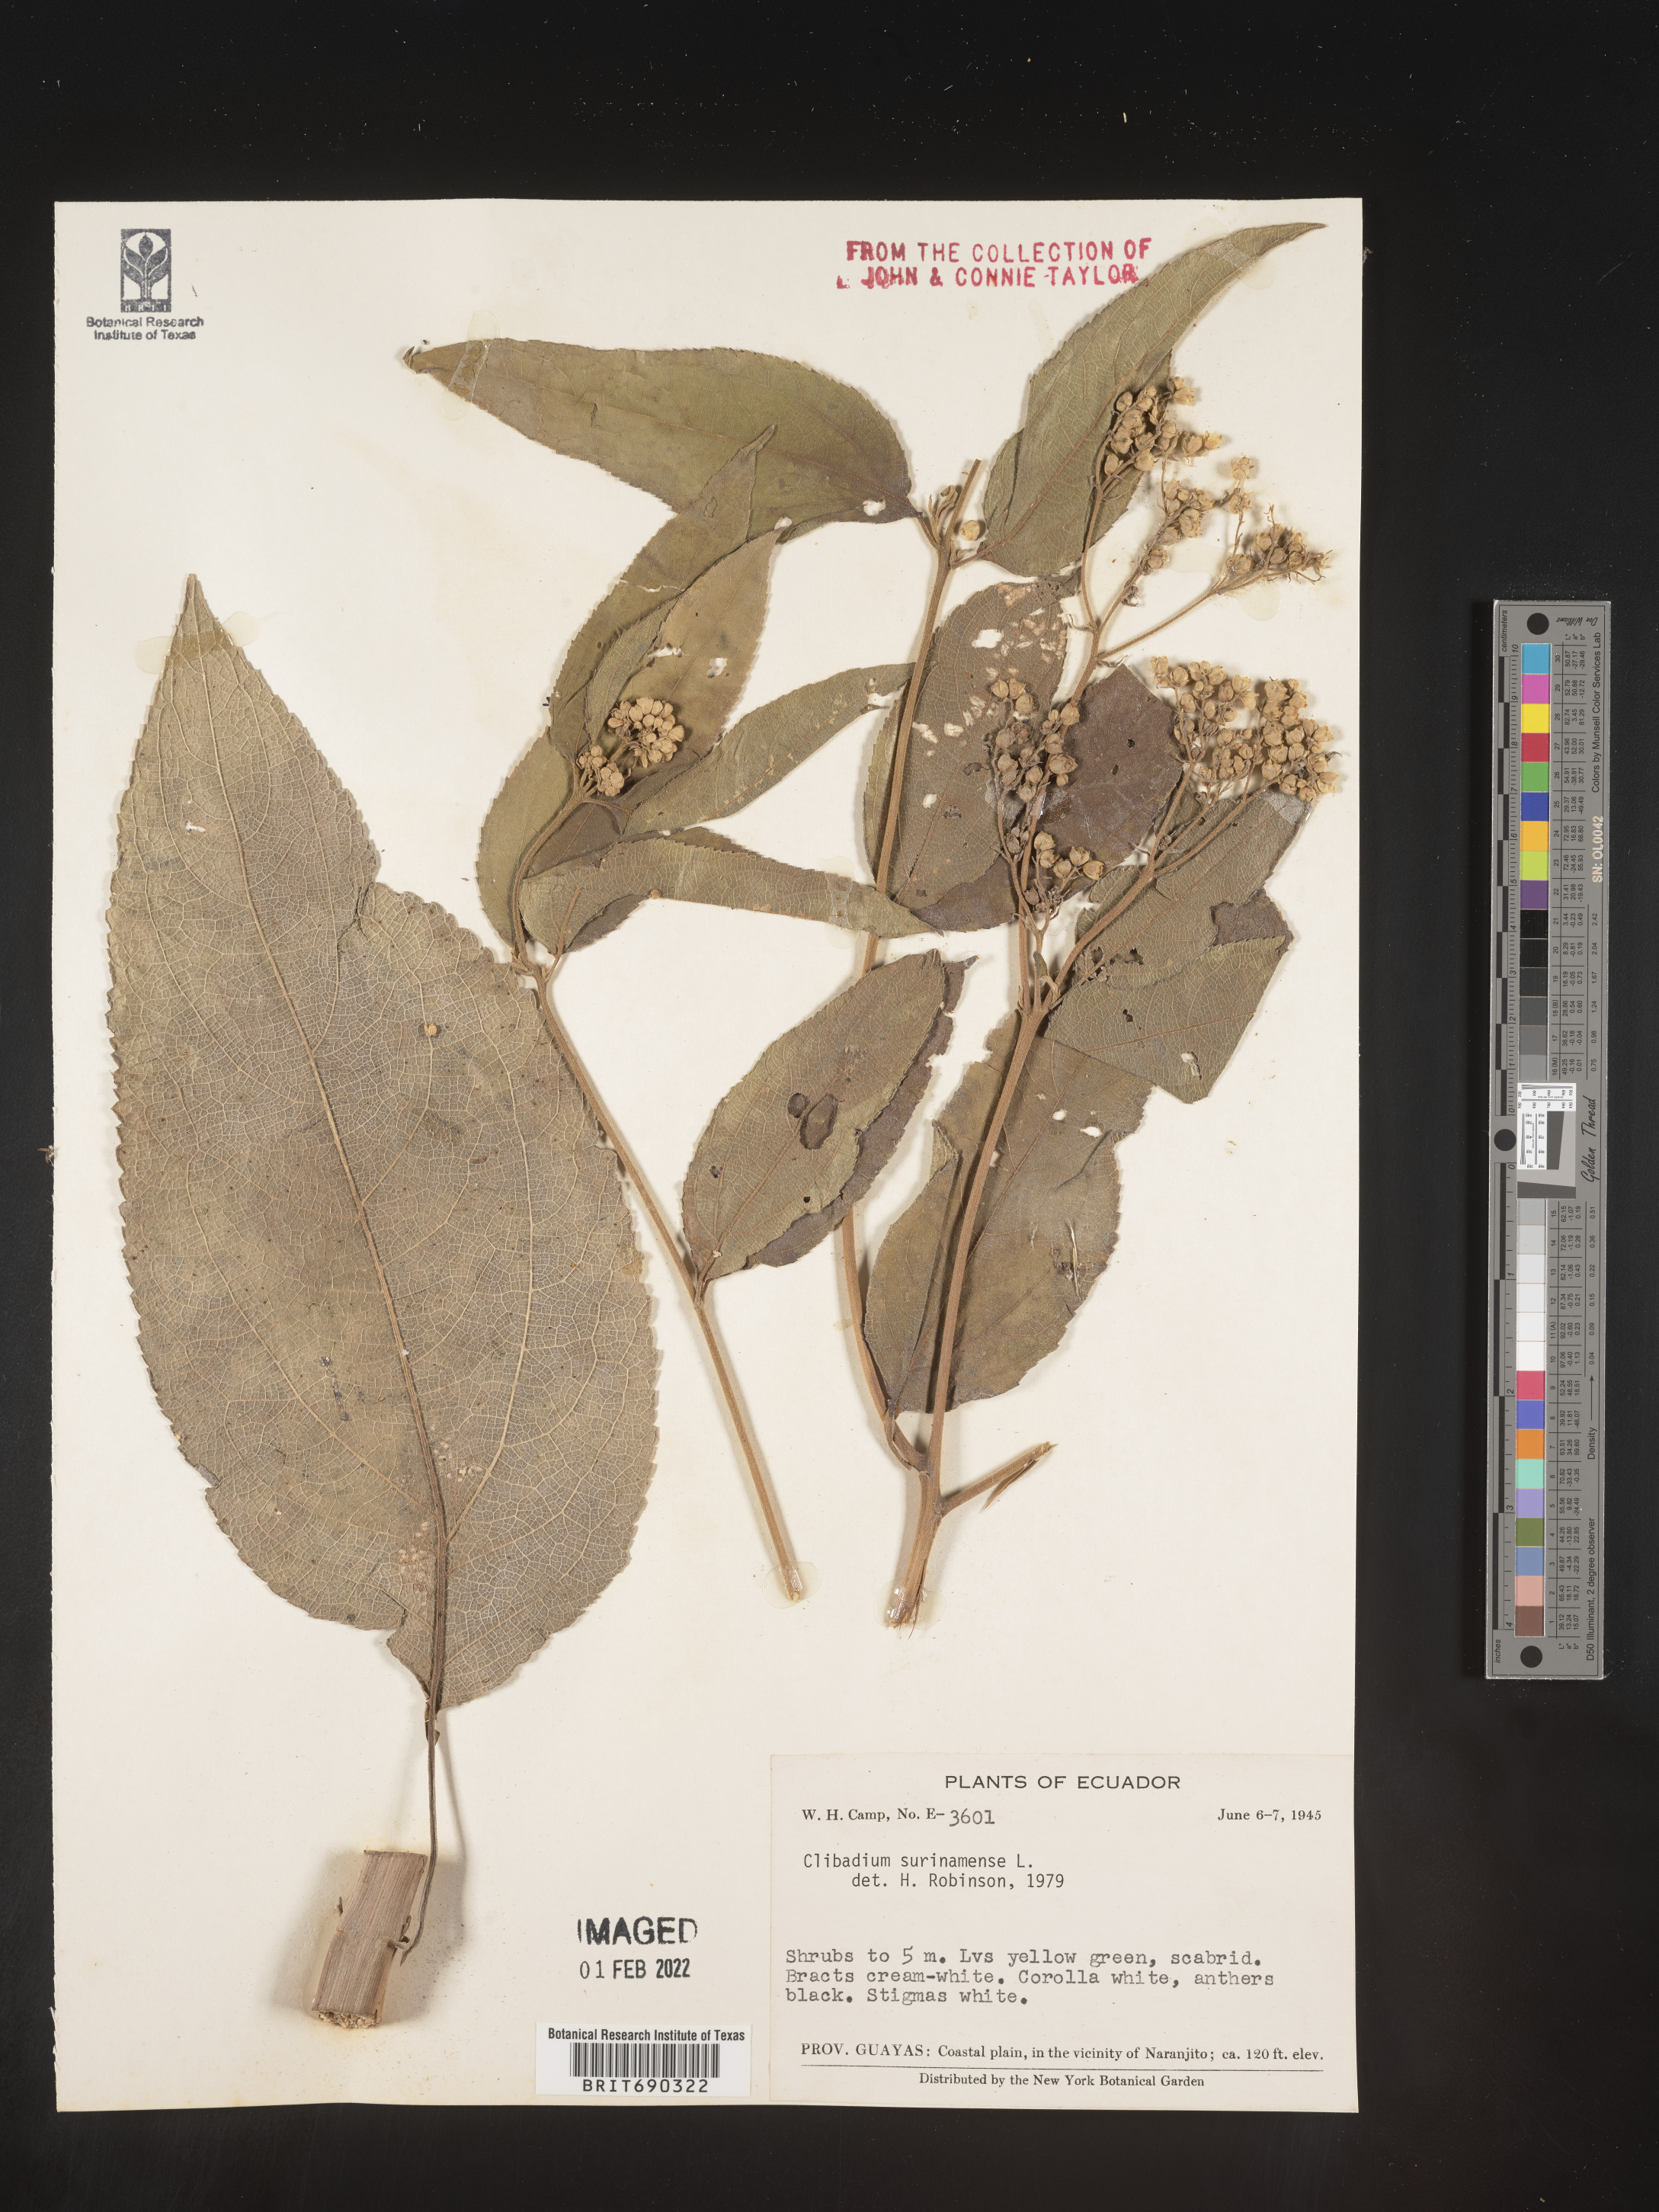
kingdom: Plantae
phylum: Tracheophyta
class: Magnoliopsida
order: Asterales
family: Asteraceae
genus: Clibadium
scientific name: Clibadium
